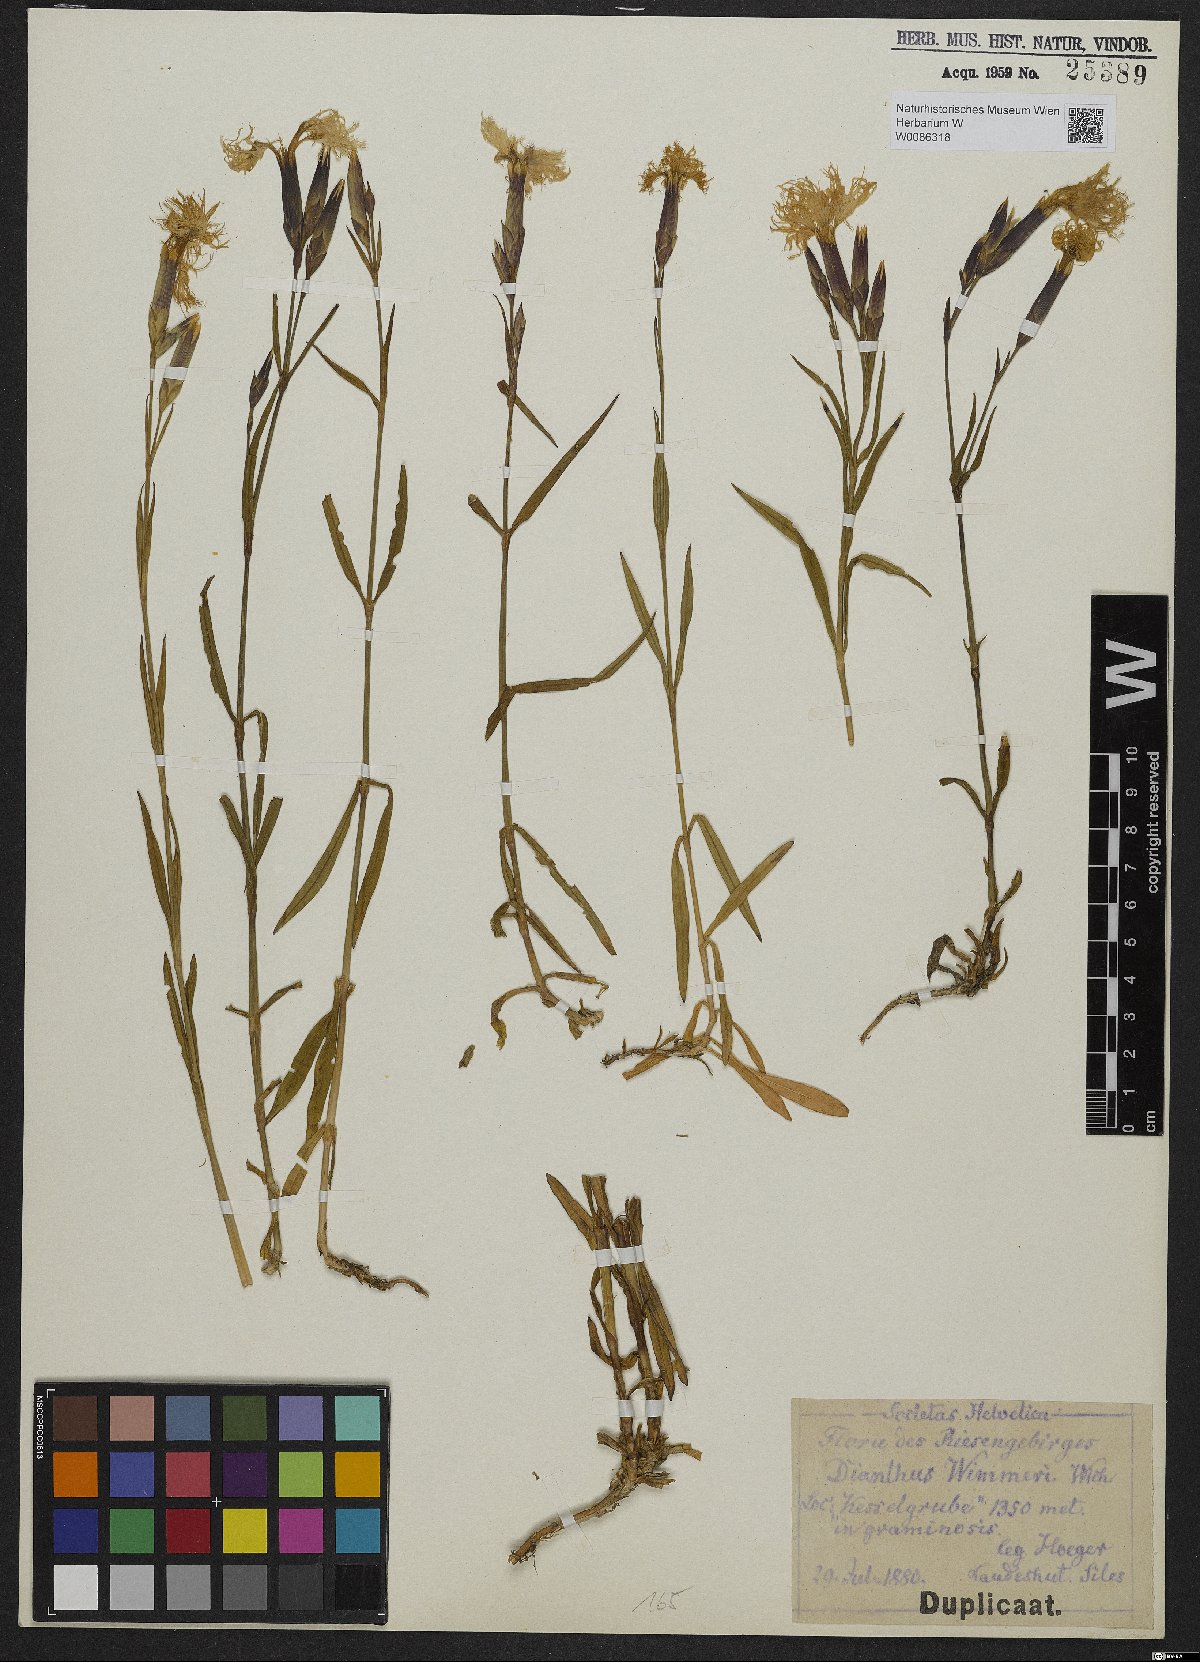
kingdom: Plantae
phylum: Tracheophyta
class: Magnoliopsida
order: Caryophyllales
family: Caryophyllaceae
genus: Dianthus
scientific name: Dianthus superbus
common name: Fringed pink
